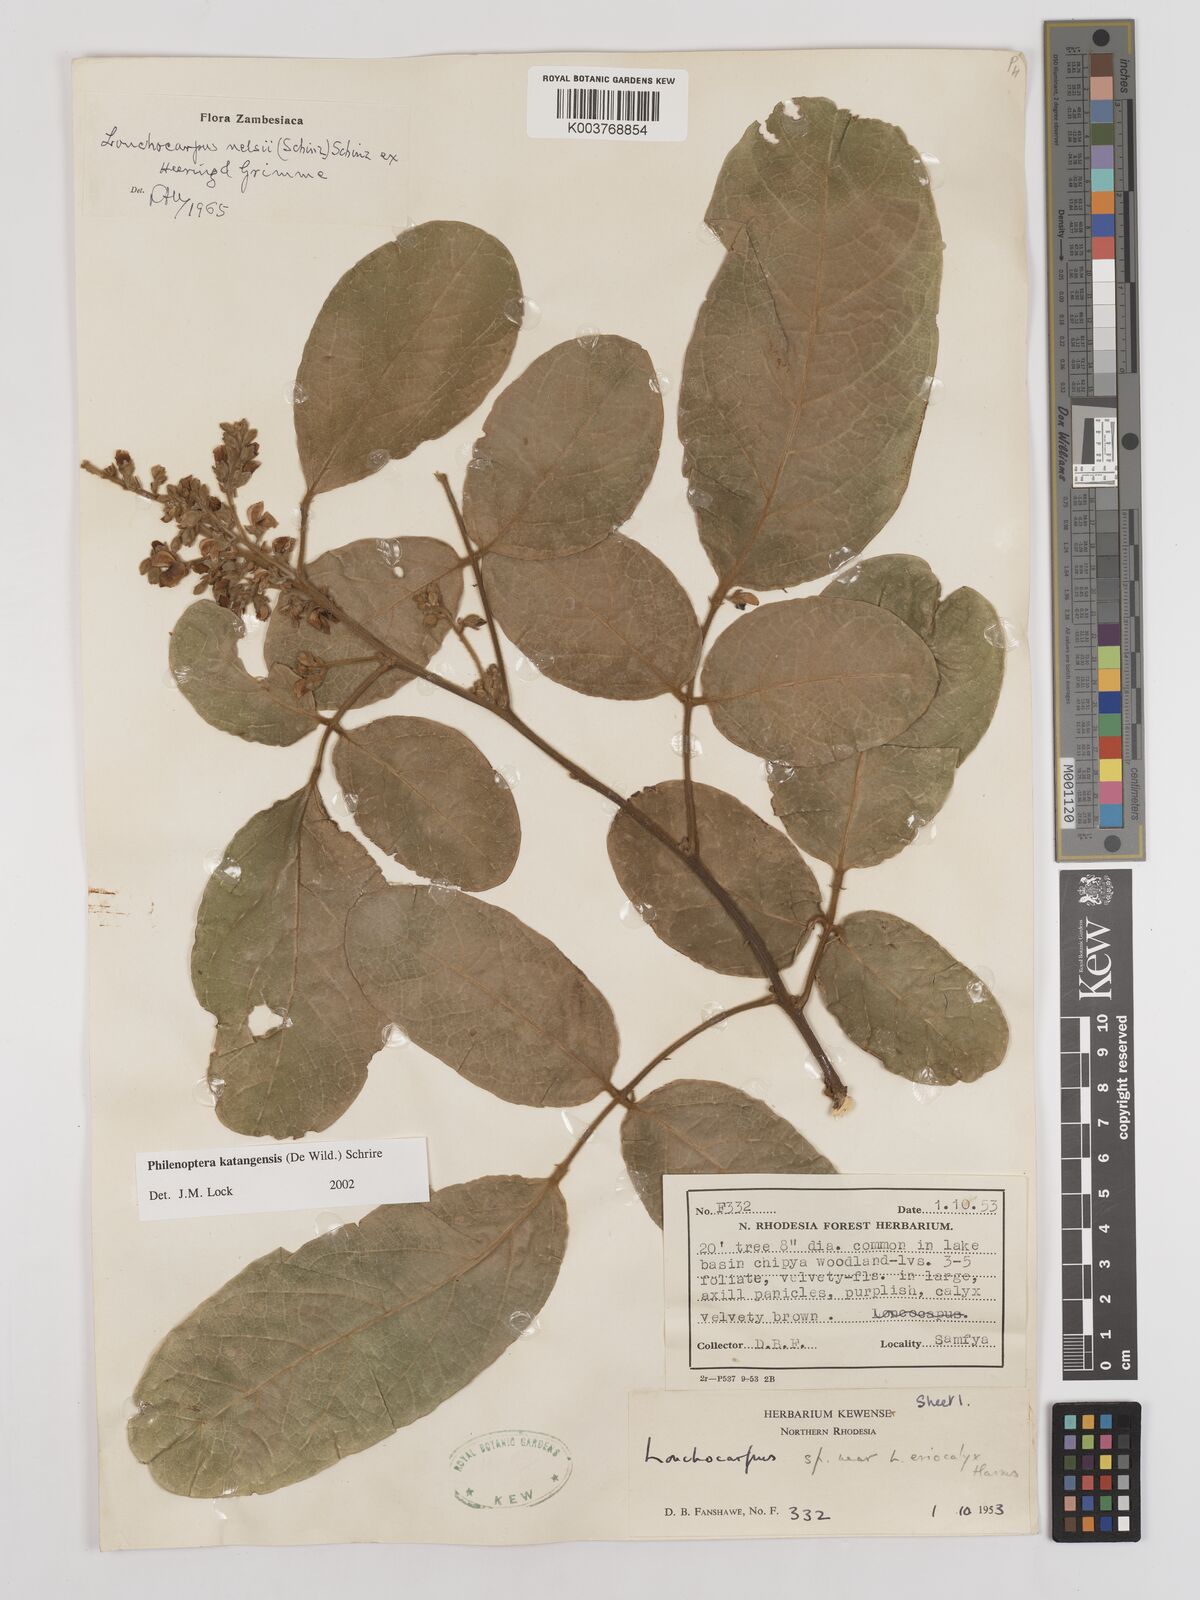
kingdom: Plantae
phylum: Tracheophyta
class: Magnoliopsida
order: Fabales
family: Fabaceae
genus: Philenoptera
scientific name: Philenoptera katangensis
